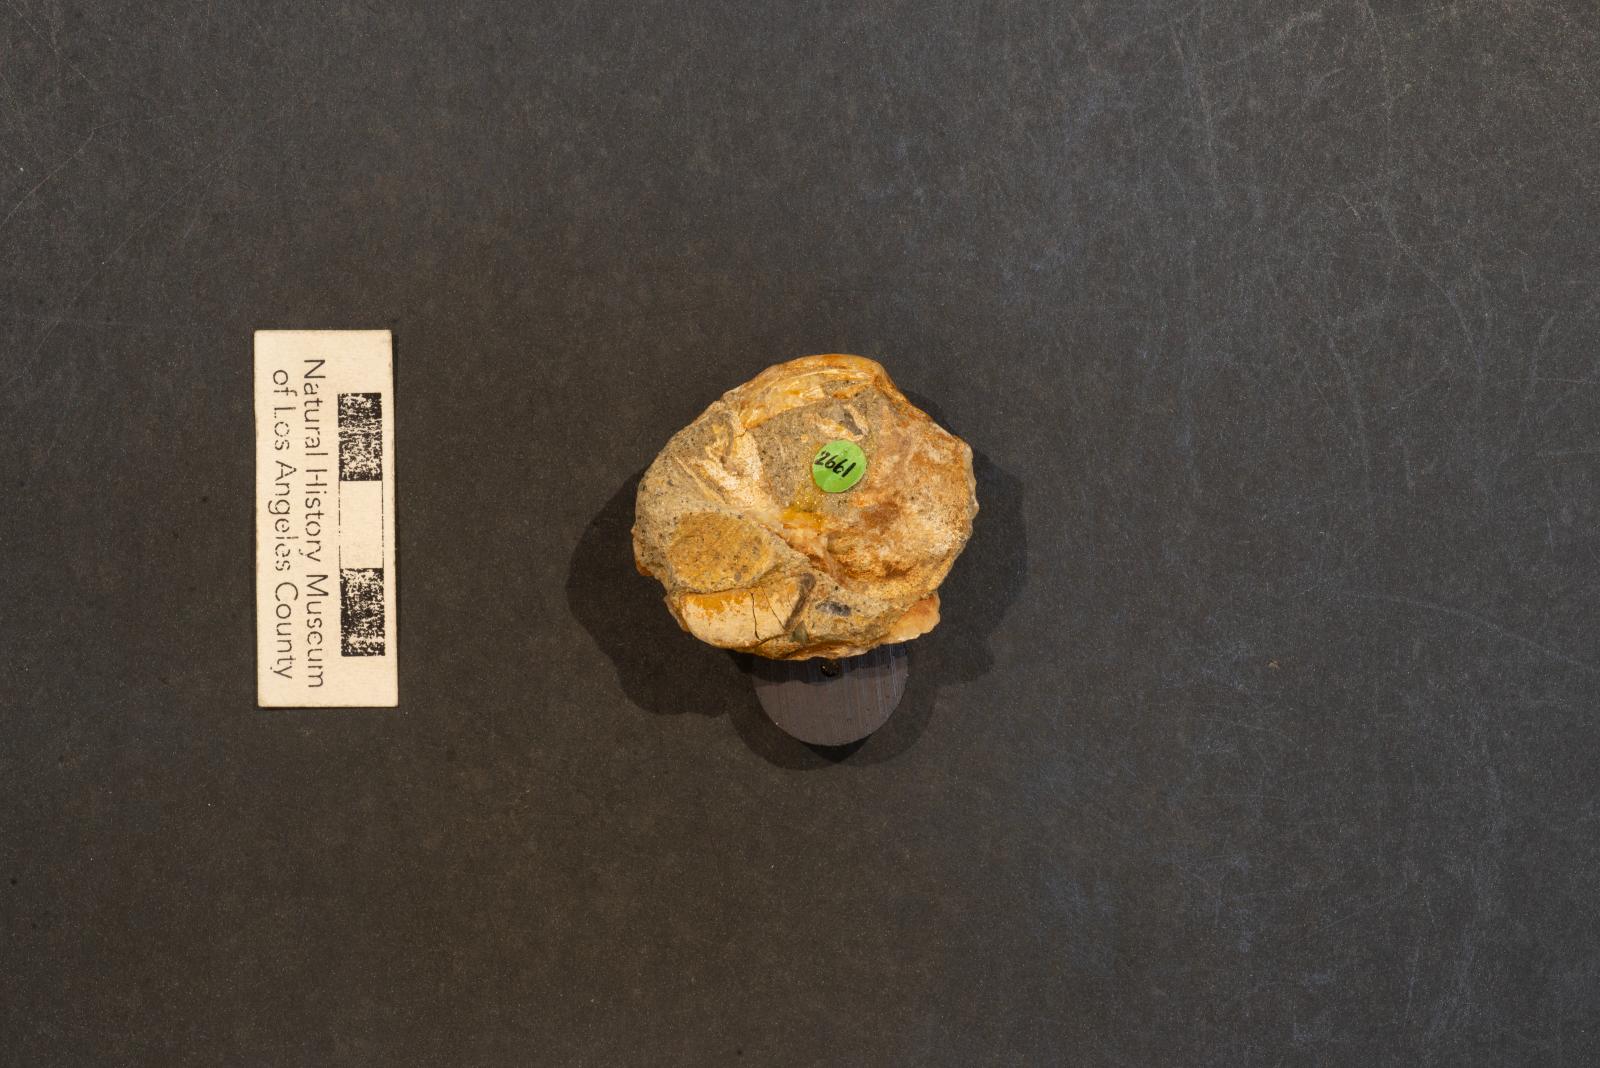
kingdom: Animalia
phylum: Mollusca
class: Bivalvia
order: Venerida
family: Veneridae
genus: Loxo
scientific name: Loxo quintense
